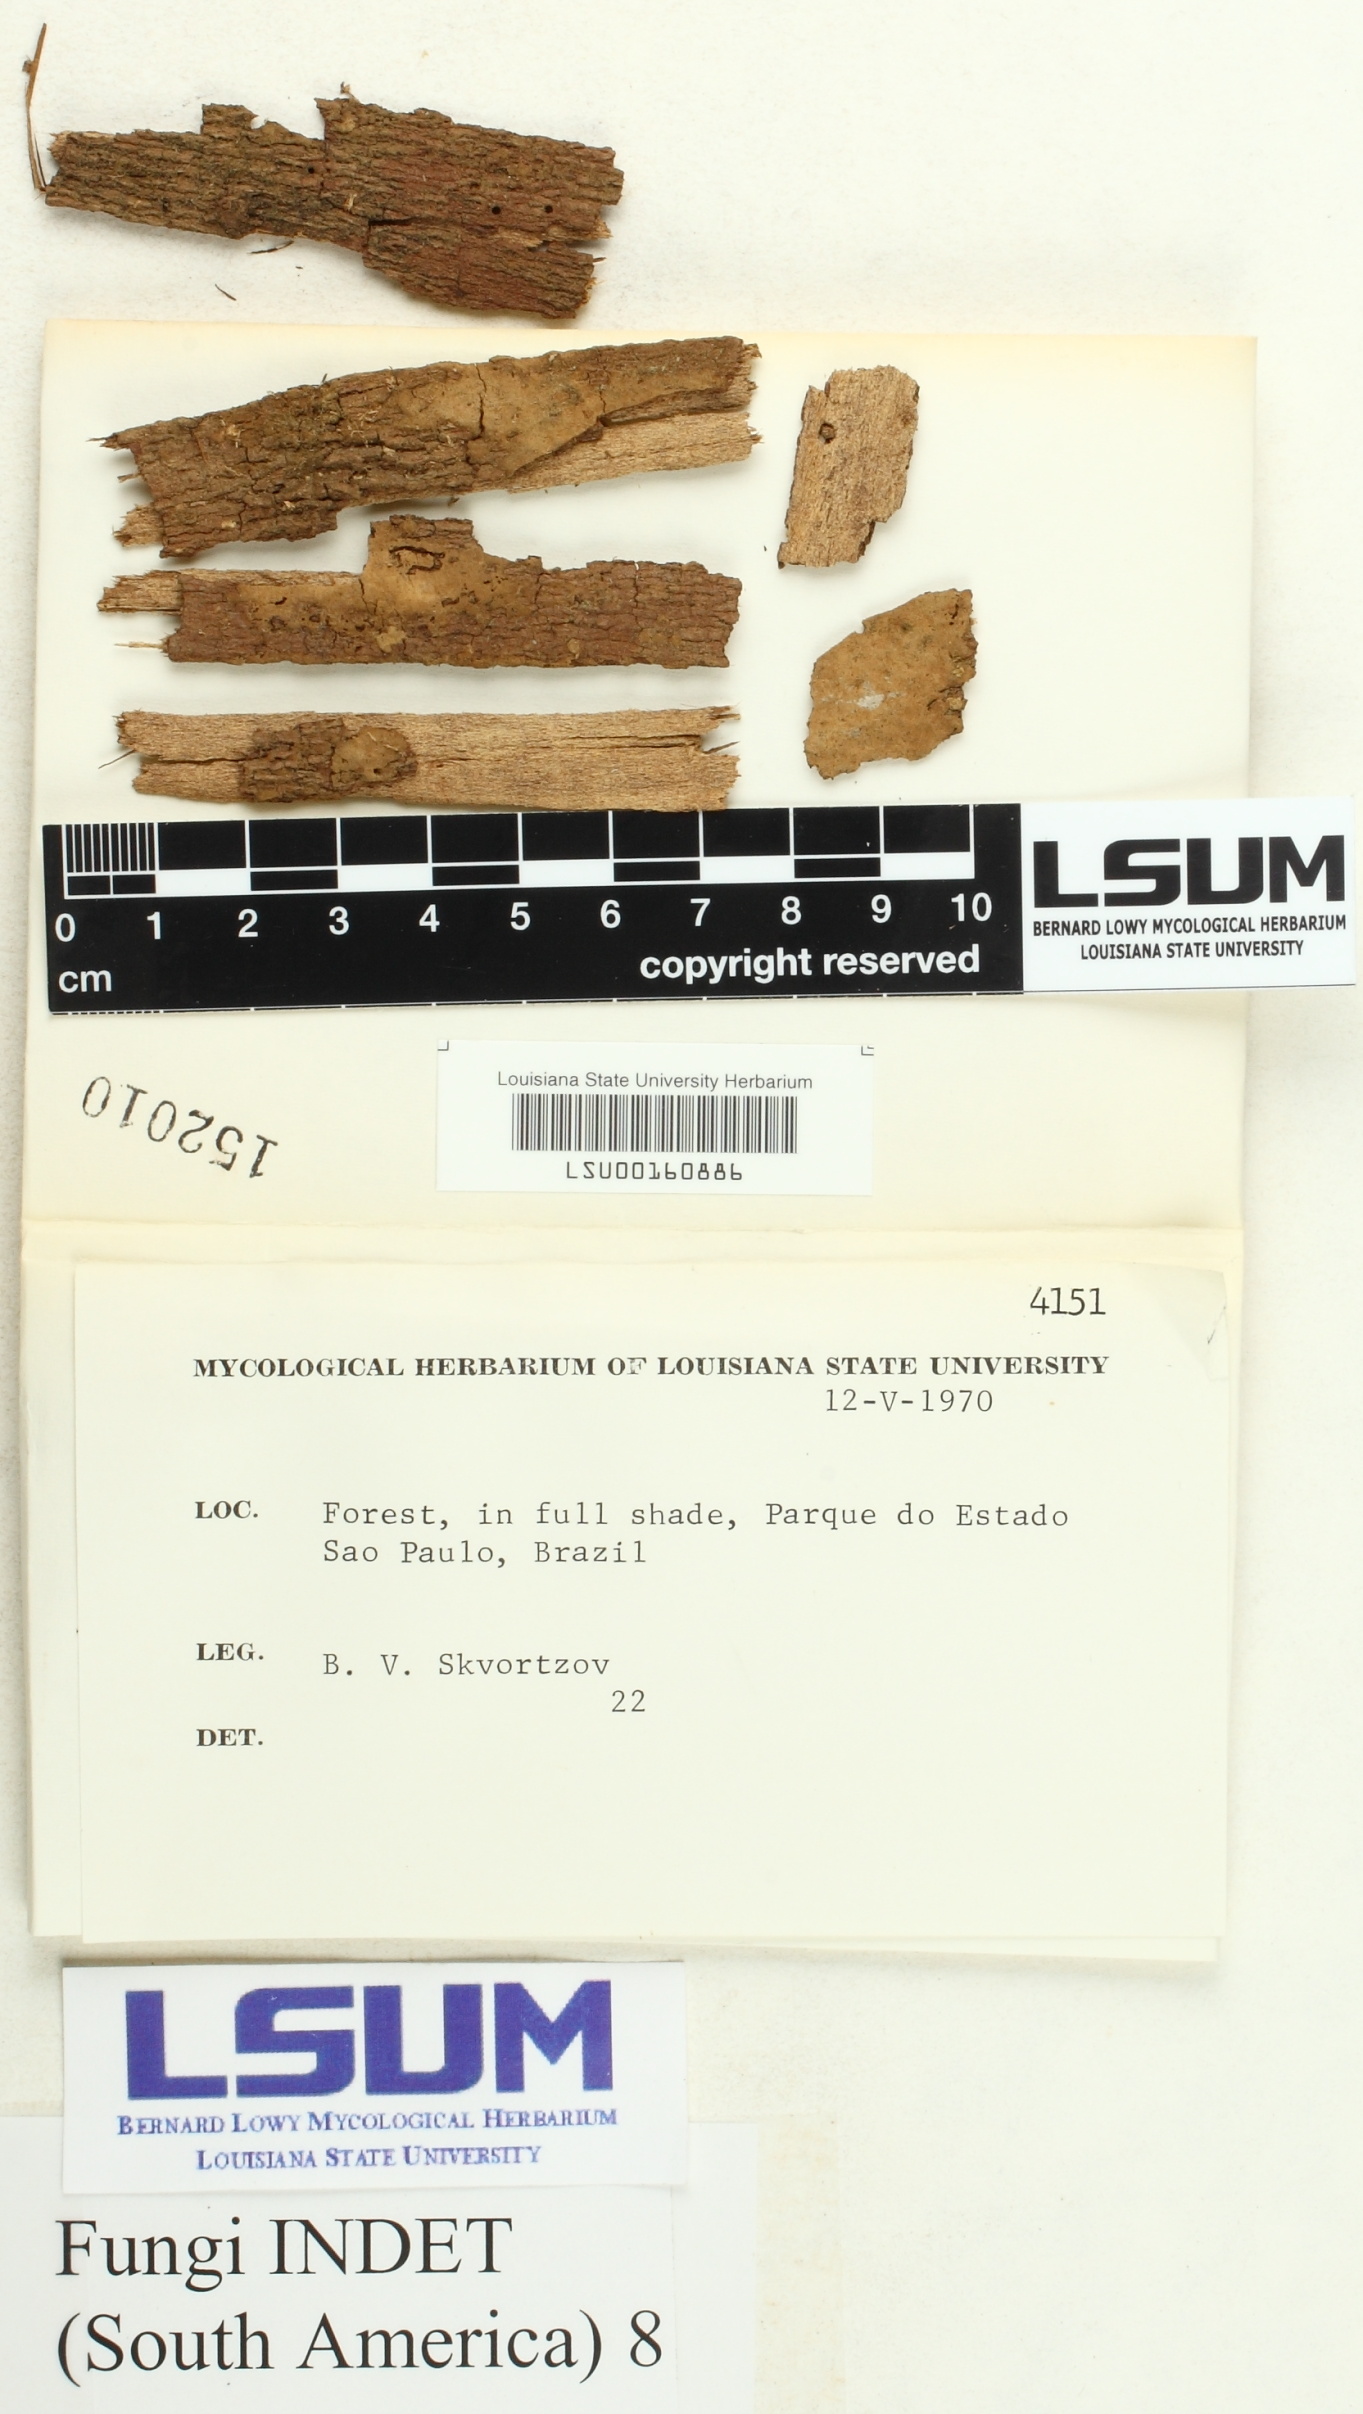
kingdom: Fungi
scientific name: Fungi
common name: Fungi
